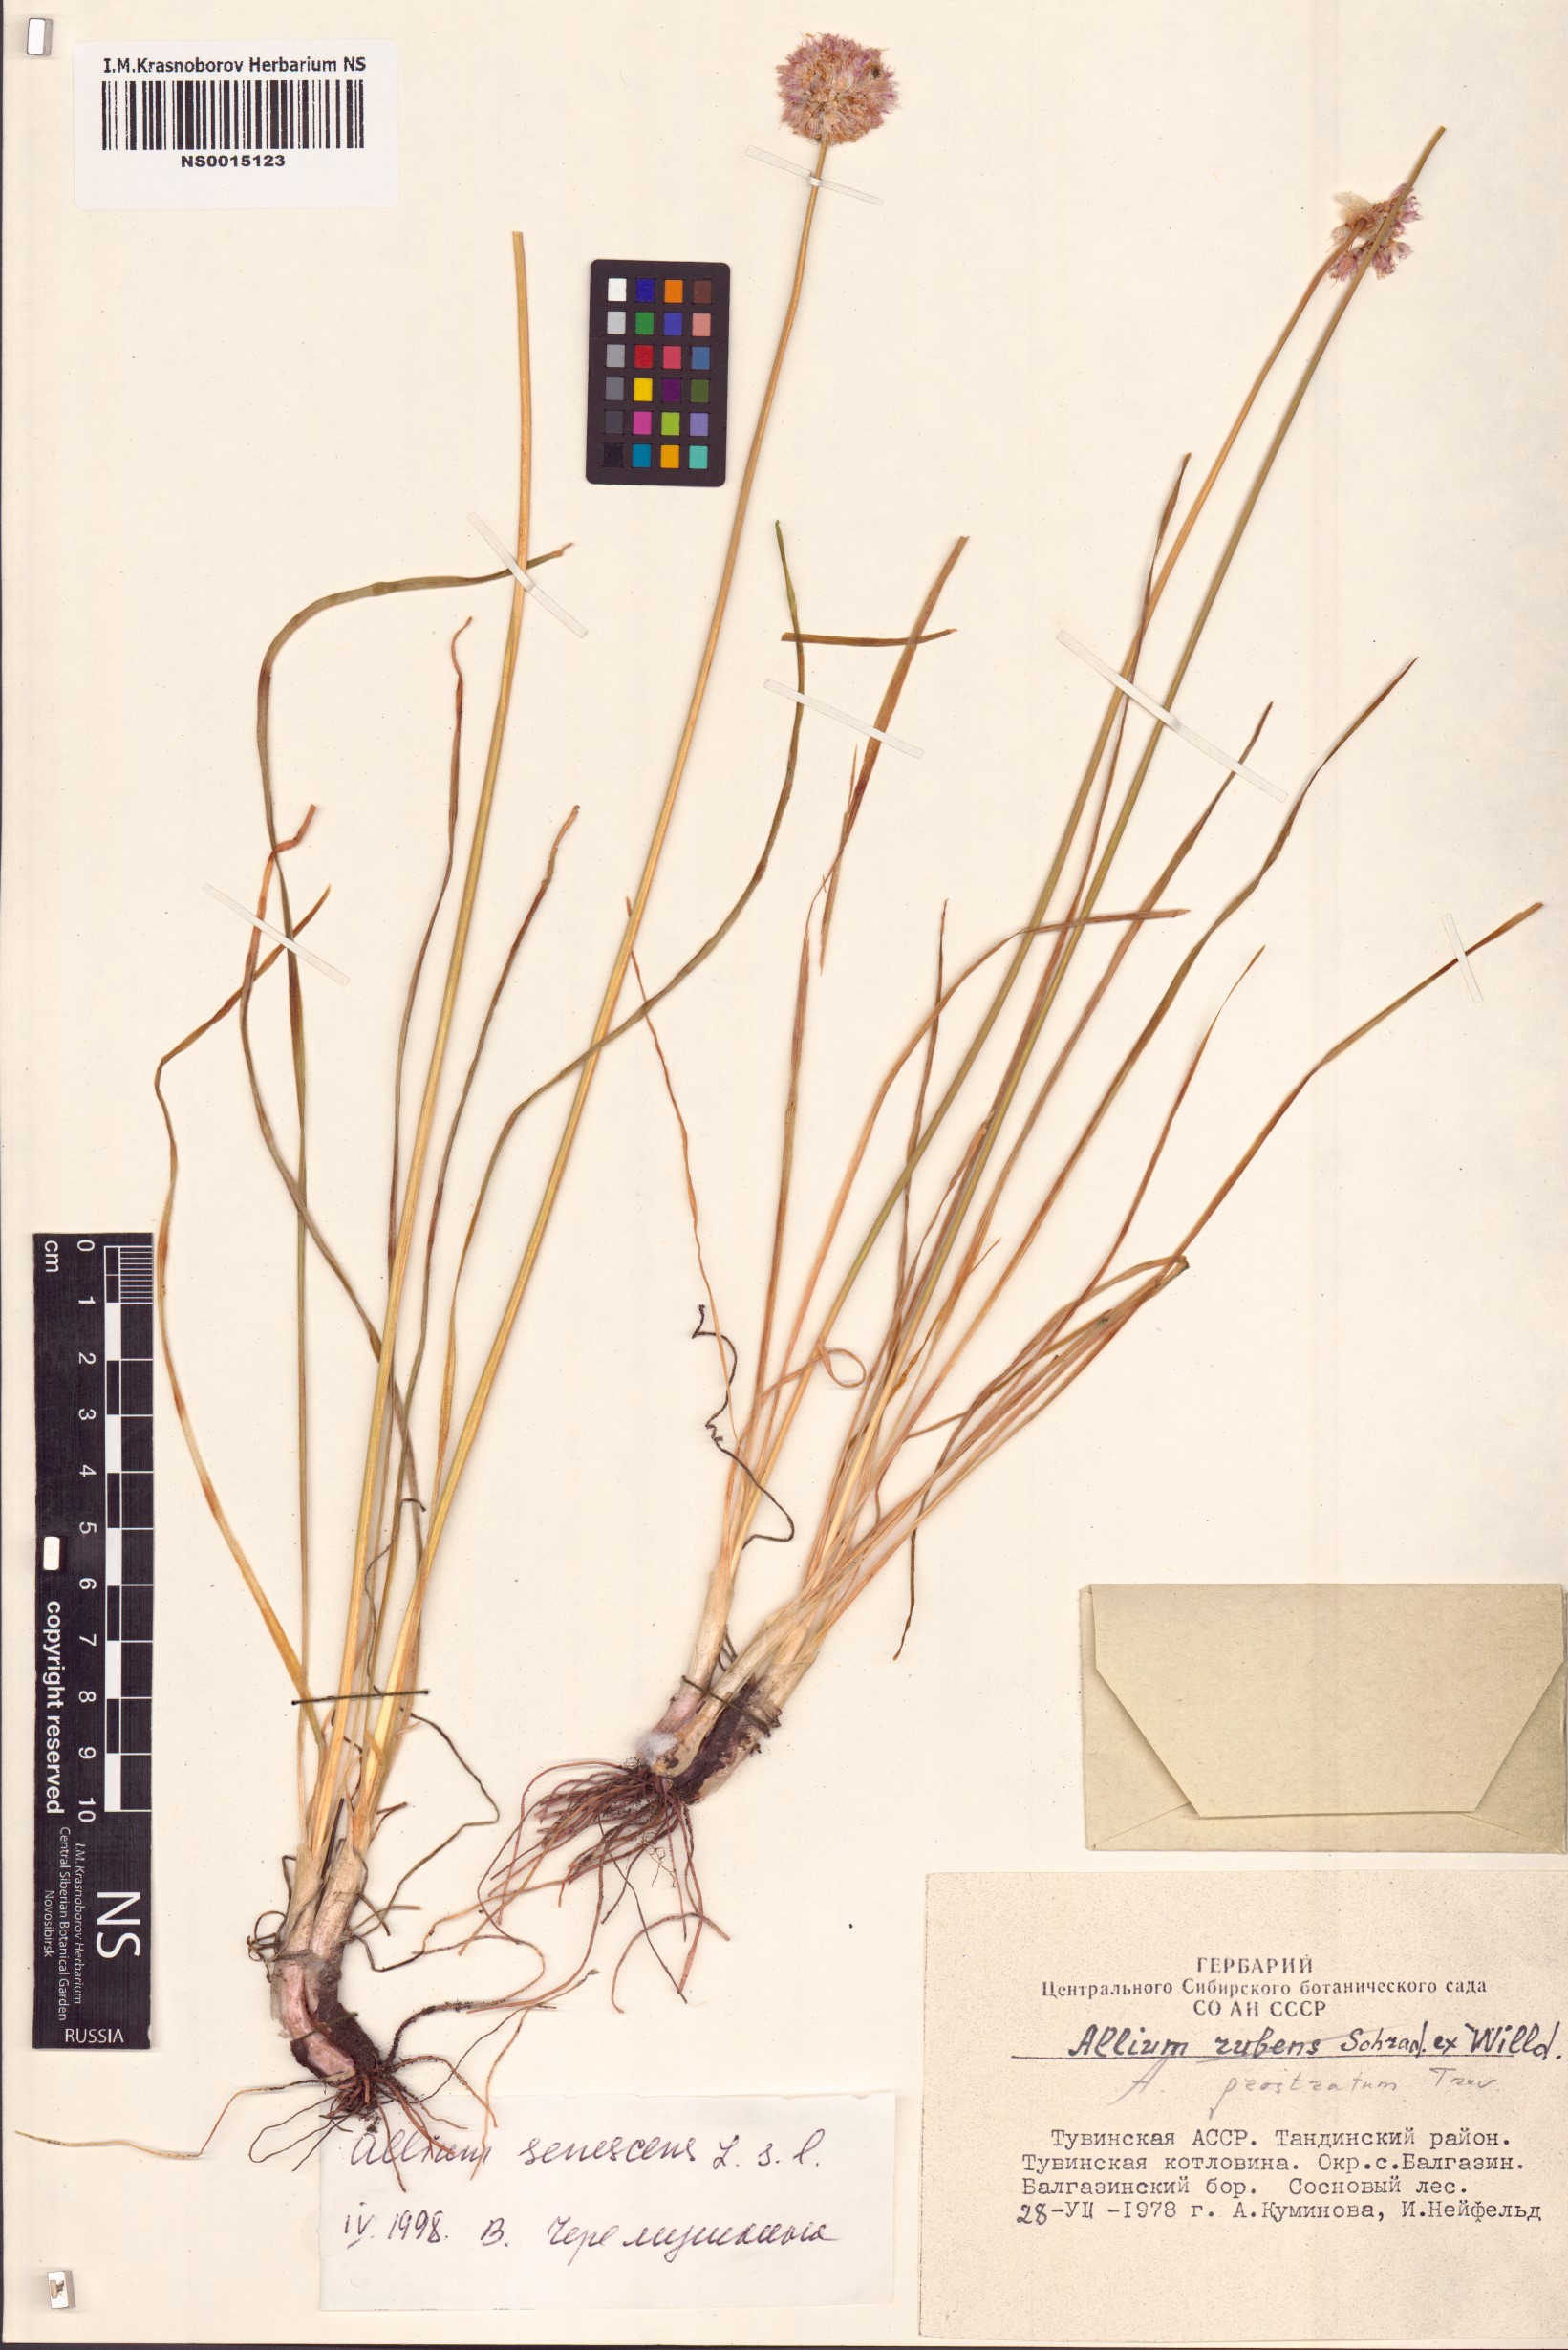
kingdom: Plantae
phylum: Tracheophyta
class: Liliopsida
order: Asparagales
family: Amaryllidaceae
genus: Allium
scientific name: Allium senescens
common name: German garlic
